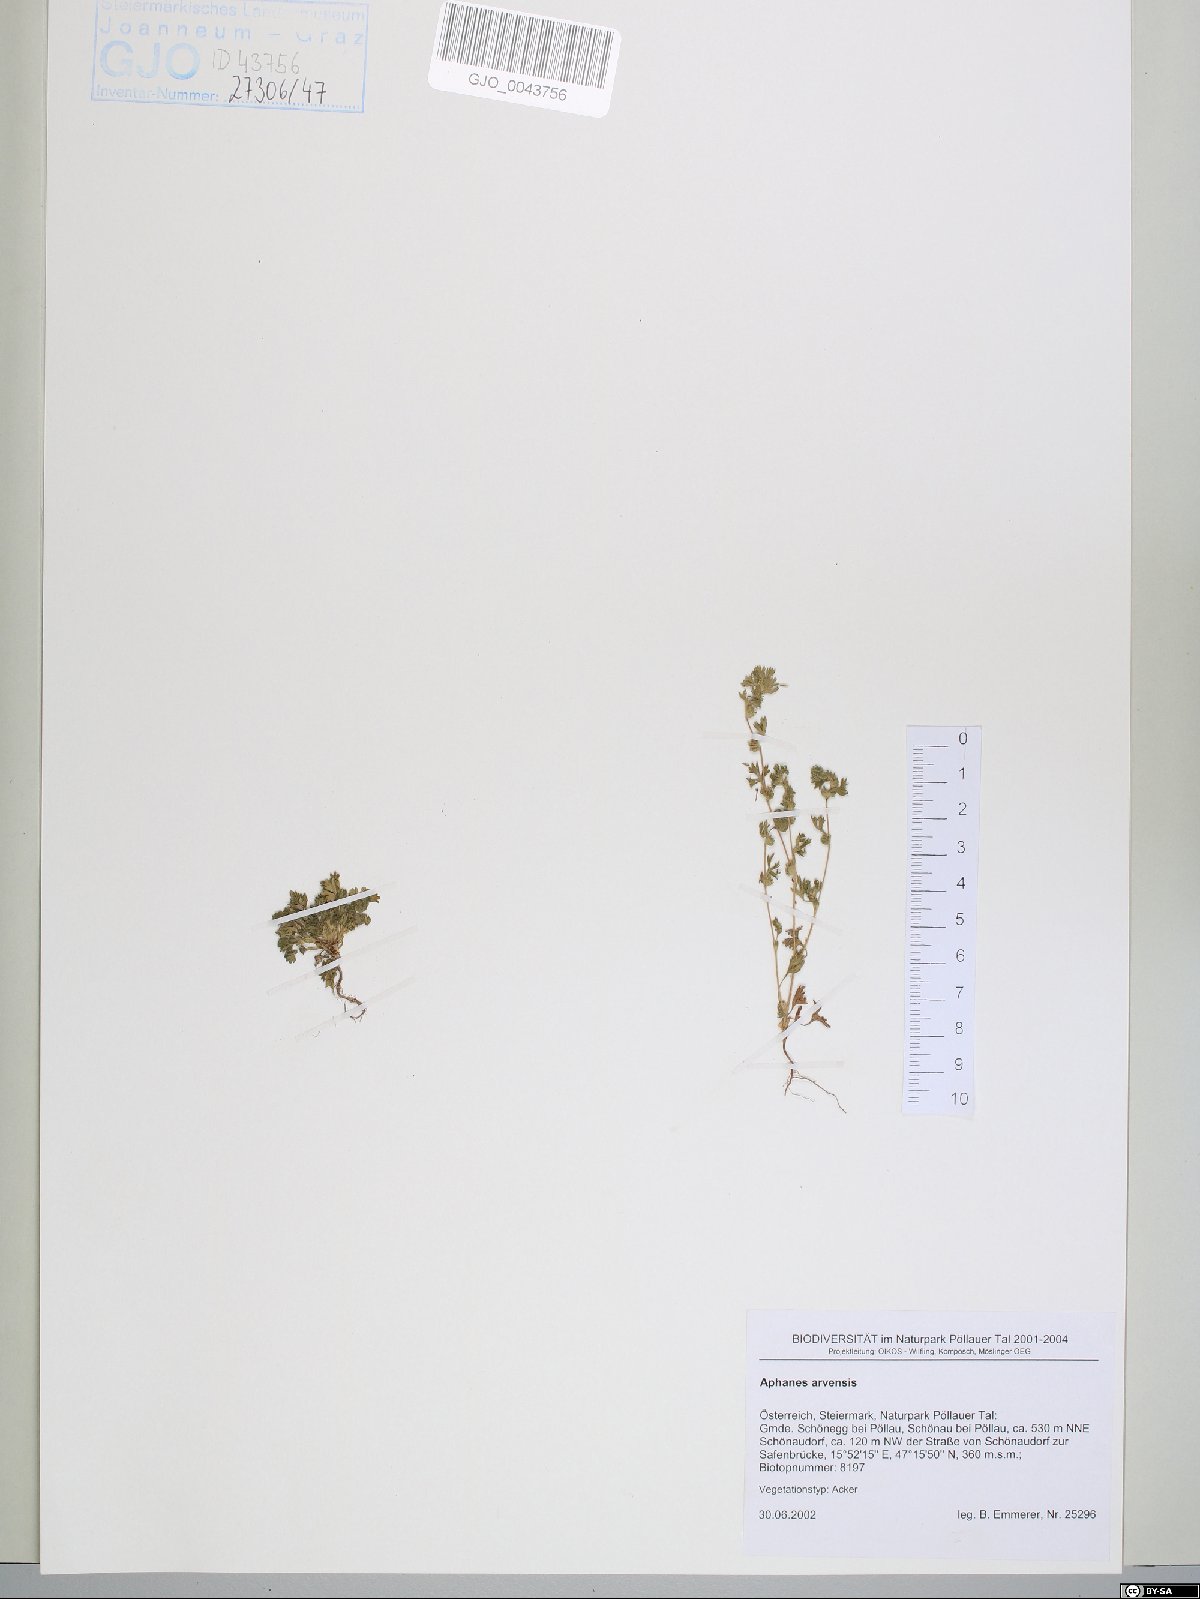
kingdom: Plantae
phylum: Tracheophyta
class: Magnoliopsida
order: Rosales
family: Rosaceae
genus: Aphanes
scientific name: Aphanes arvensis
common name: Parsley-piert
